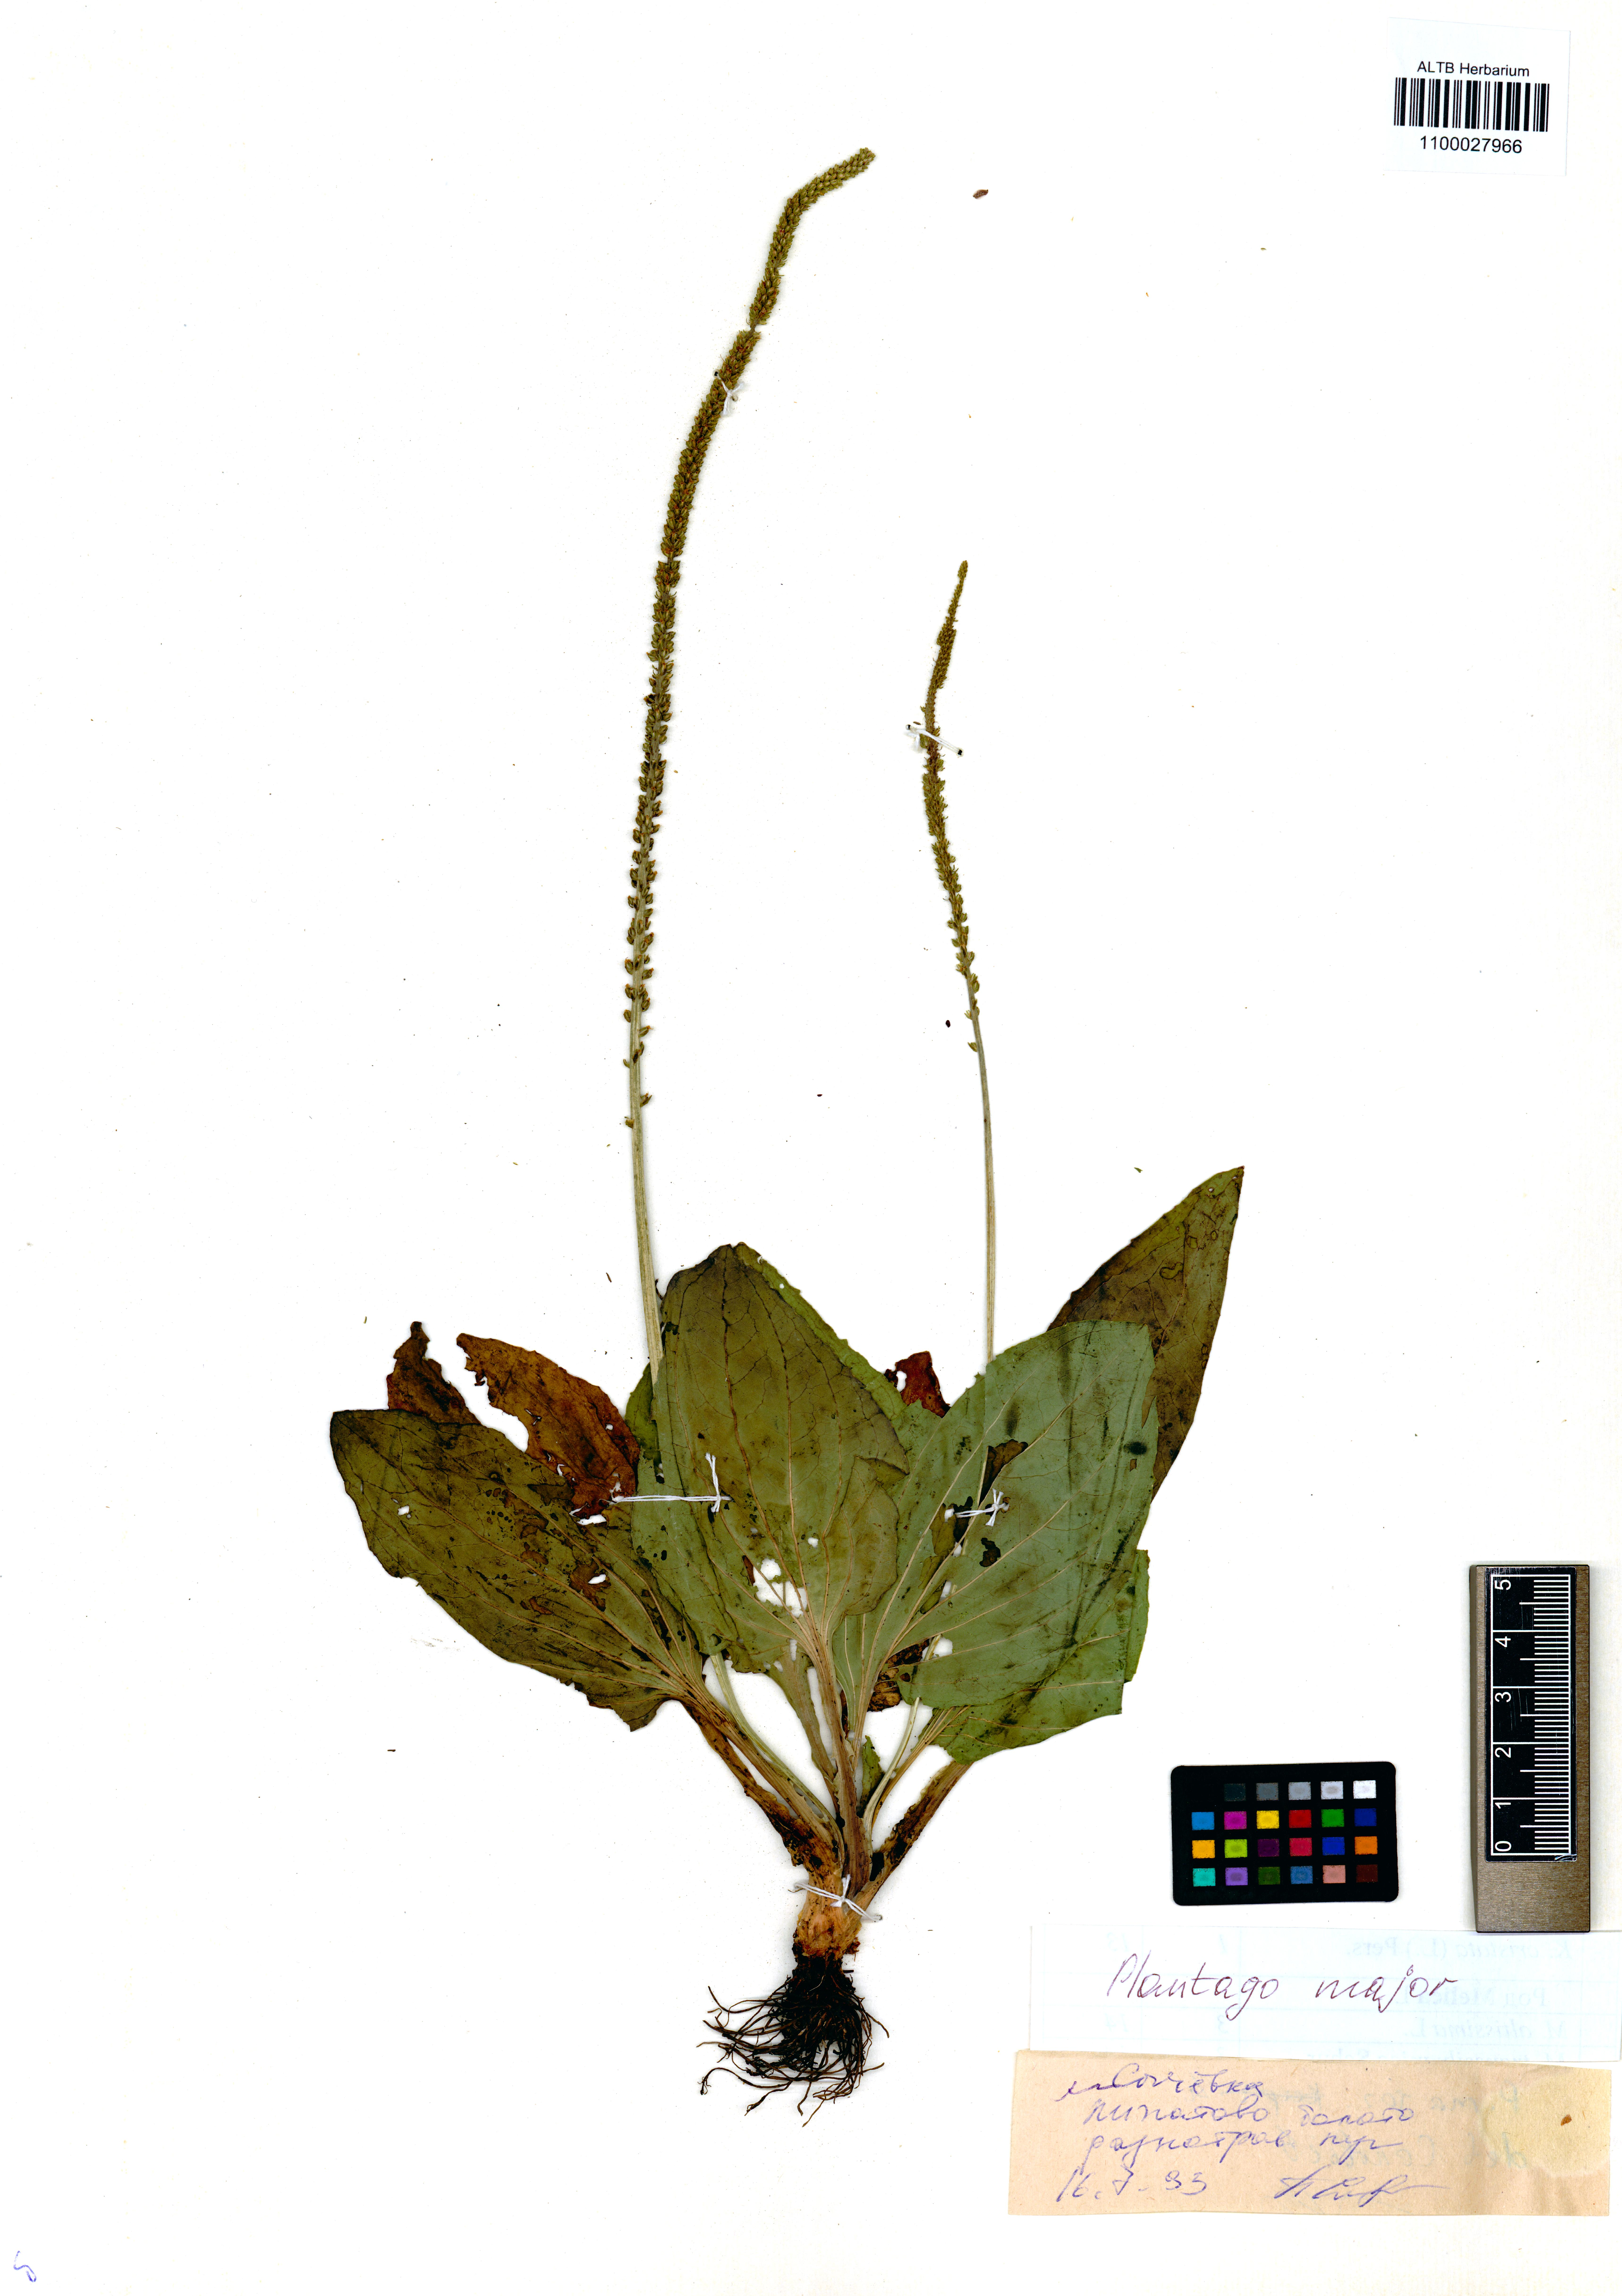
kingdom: Plantae
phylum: Tracheophyta
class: Magnoliopsida
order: Lamiales
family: Plantaginaceae
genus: Plantago
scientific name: Plantago major
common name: Common plantain
